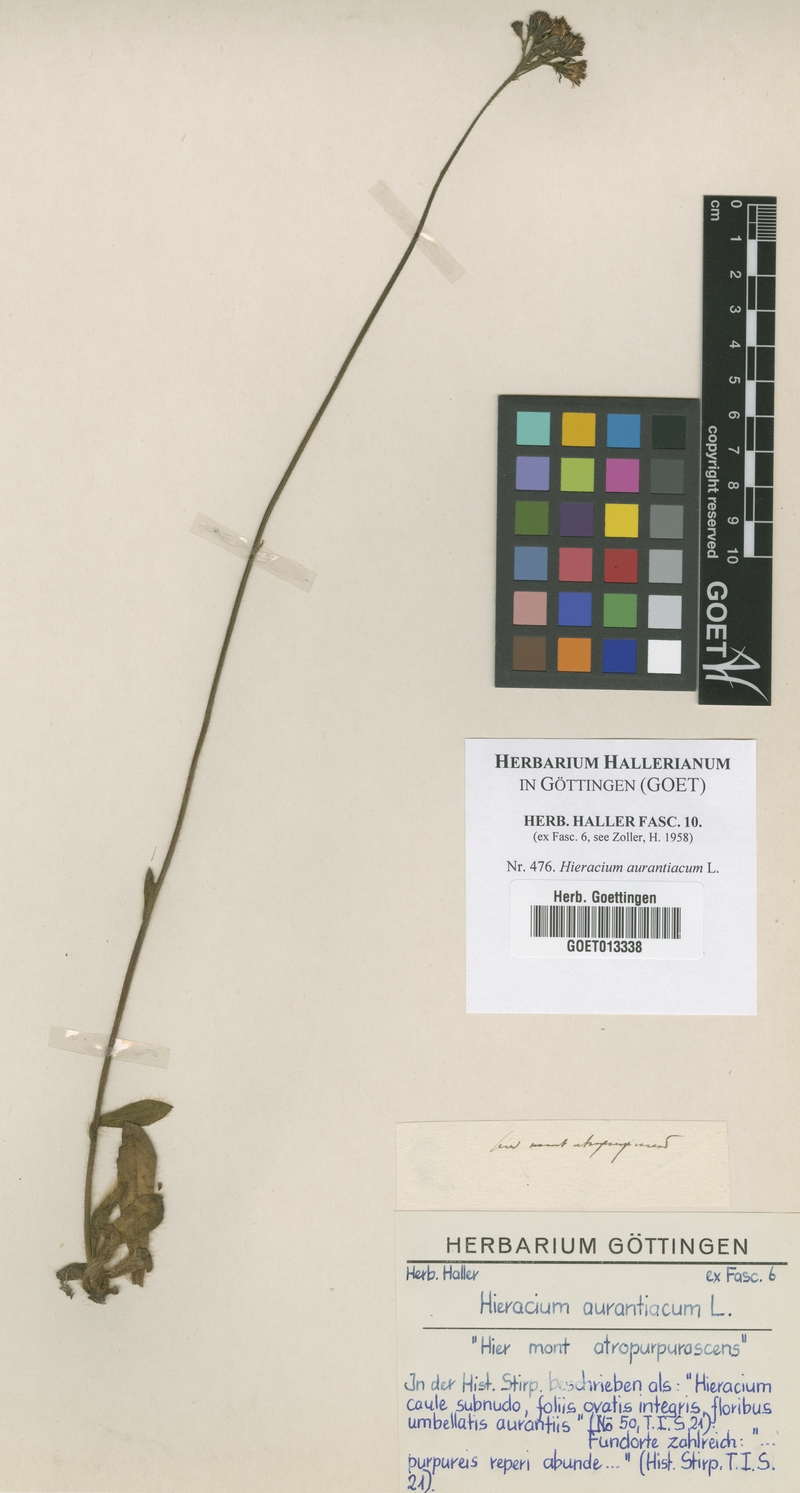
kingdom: Plantae
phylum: Tracheophyta
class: Magnoliopsida
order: Asterales
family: Asteraceae
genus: Pilosella
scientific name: Pilosella aurantiaca
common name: Fox-and-cubs
